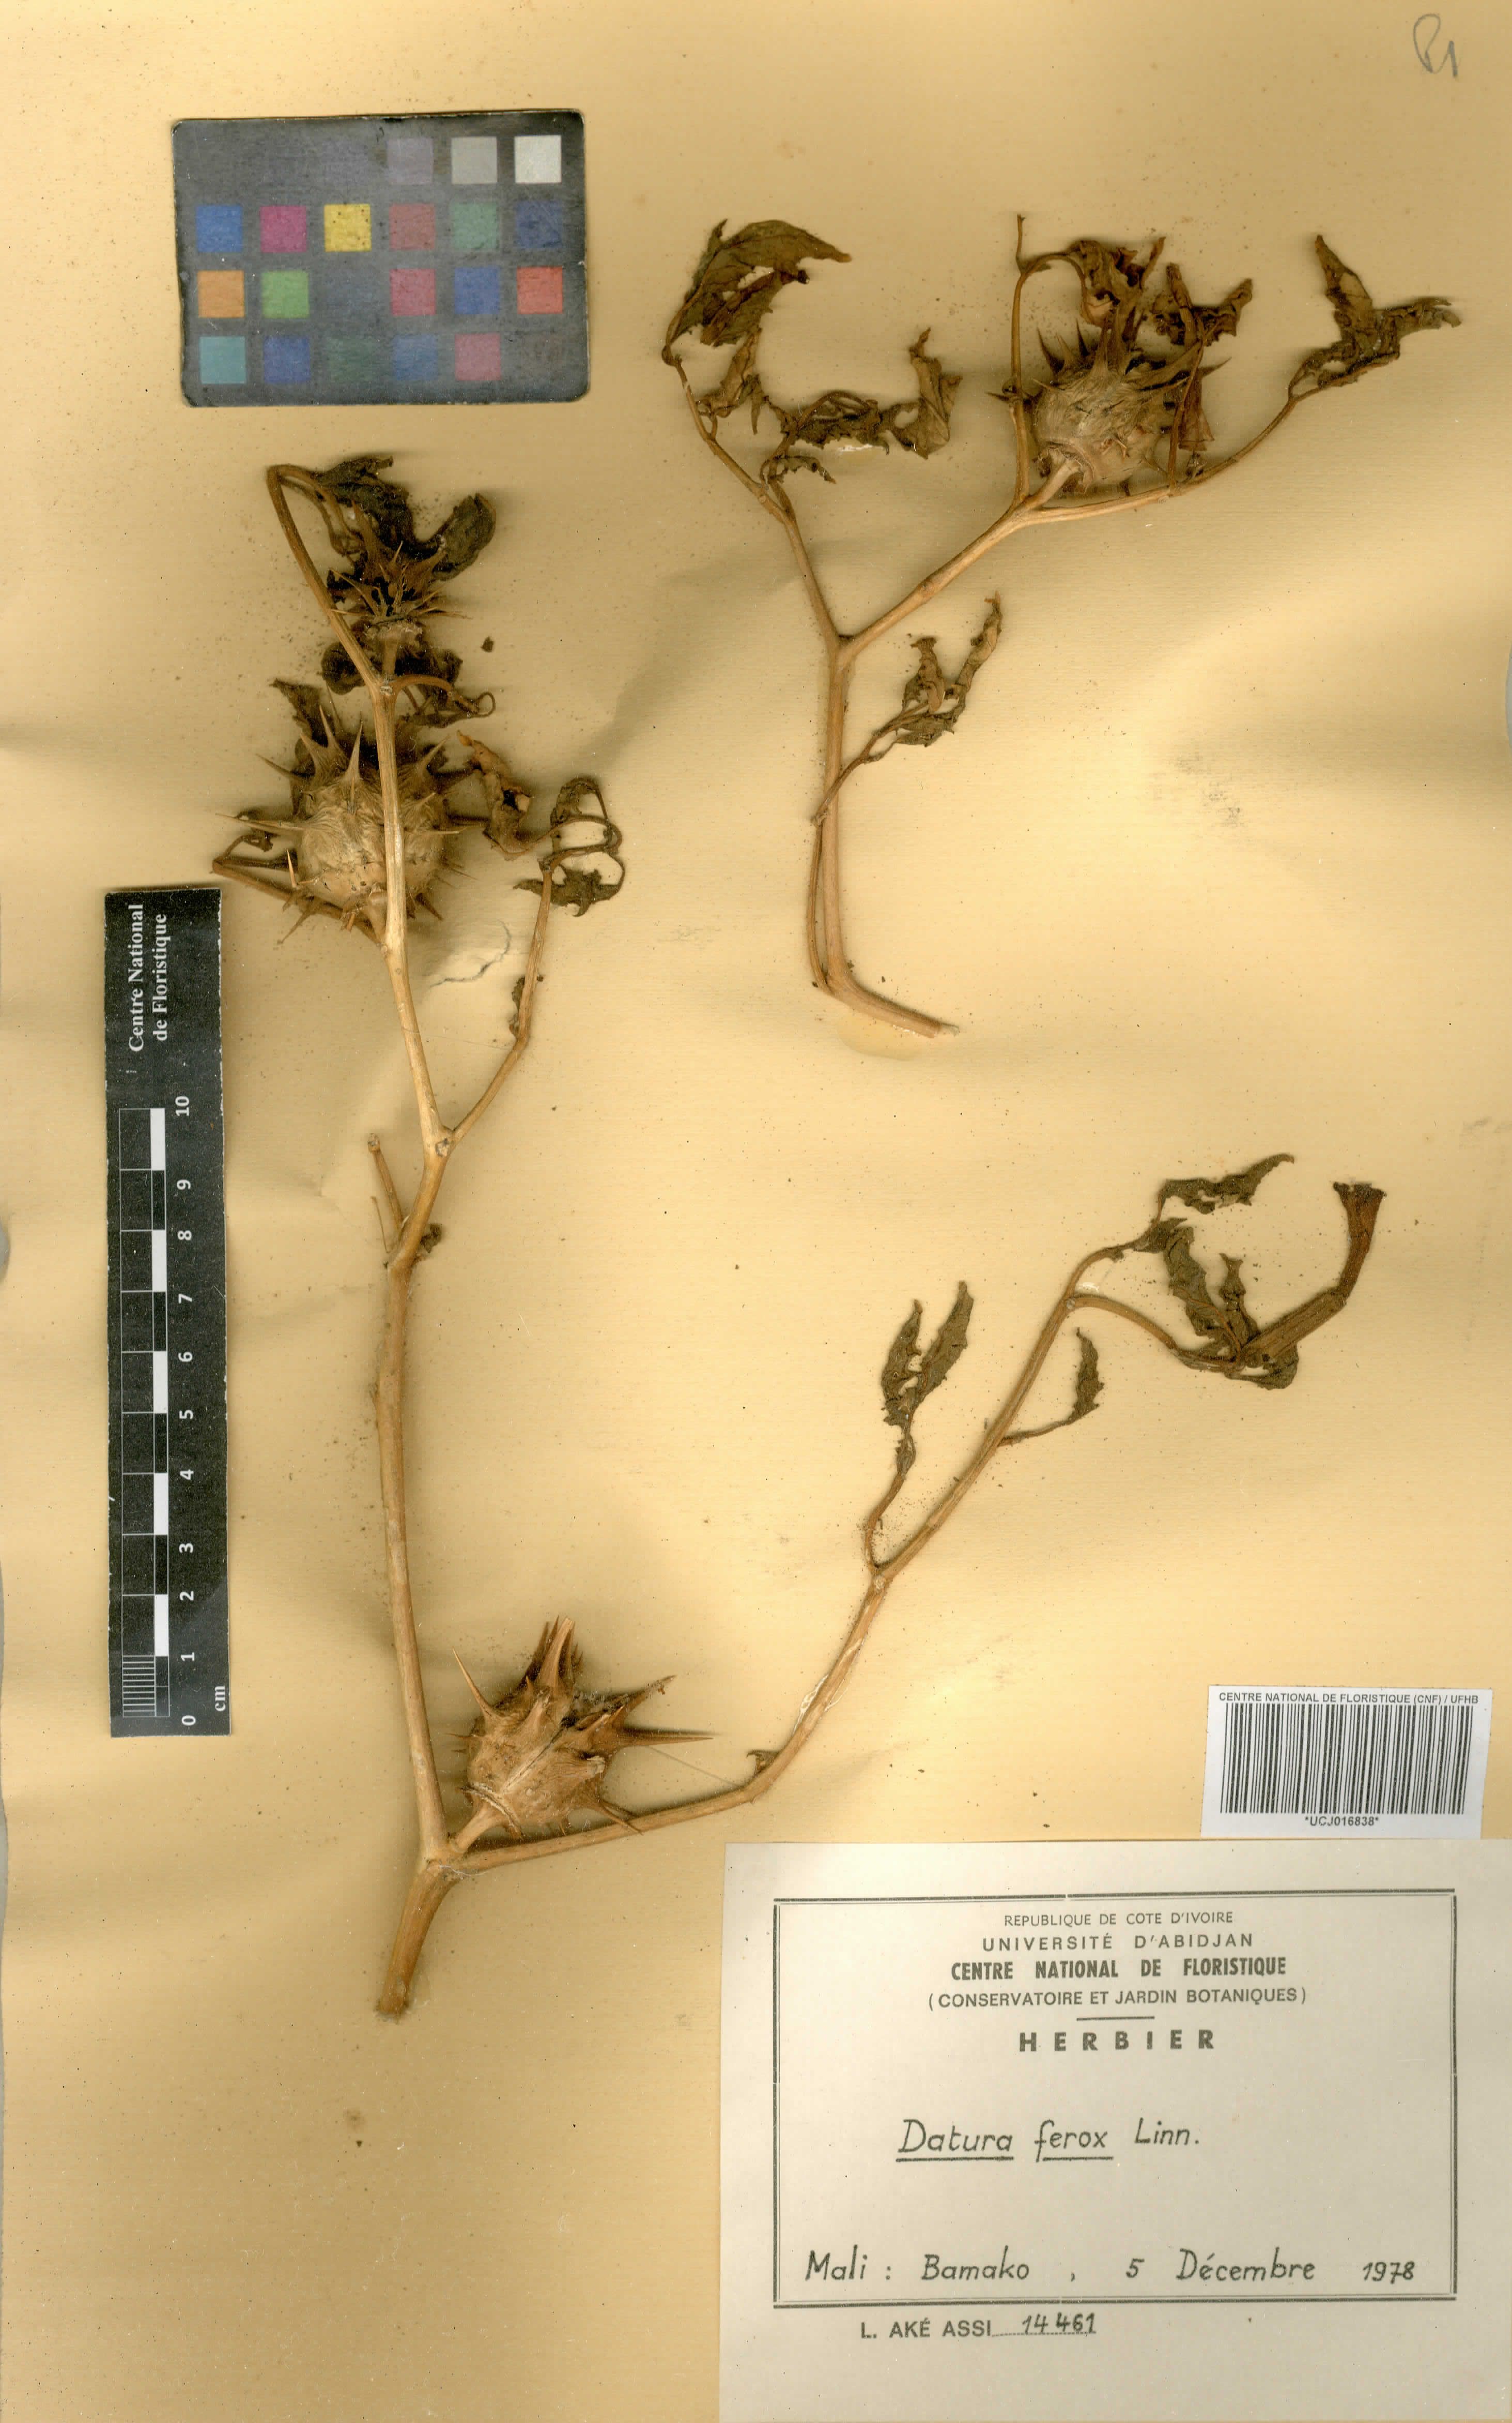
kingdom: Plantae
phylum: Tracheophyta
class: Magnoliopsida
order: Solanales
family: Solanaceae
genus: Datura
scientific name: Datura ferox
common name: Angel's-trumpets
